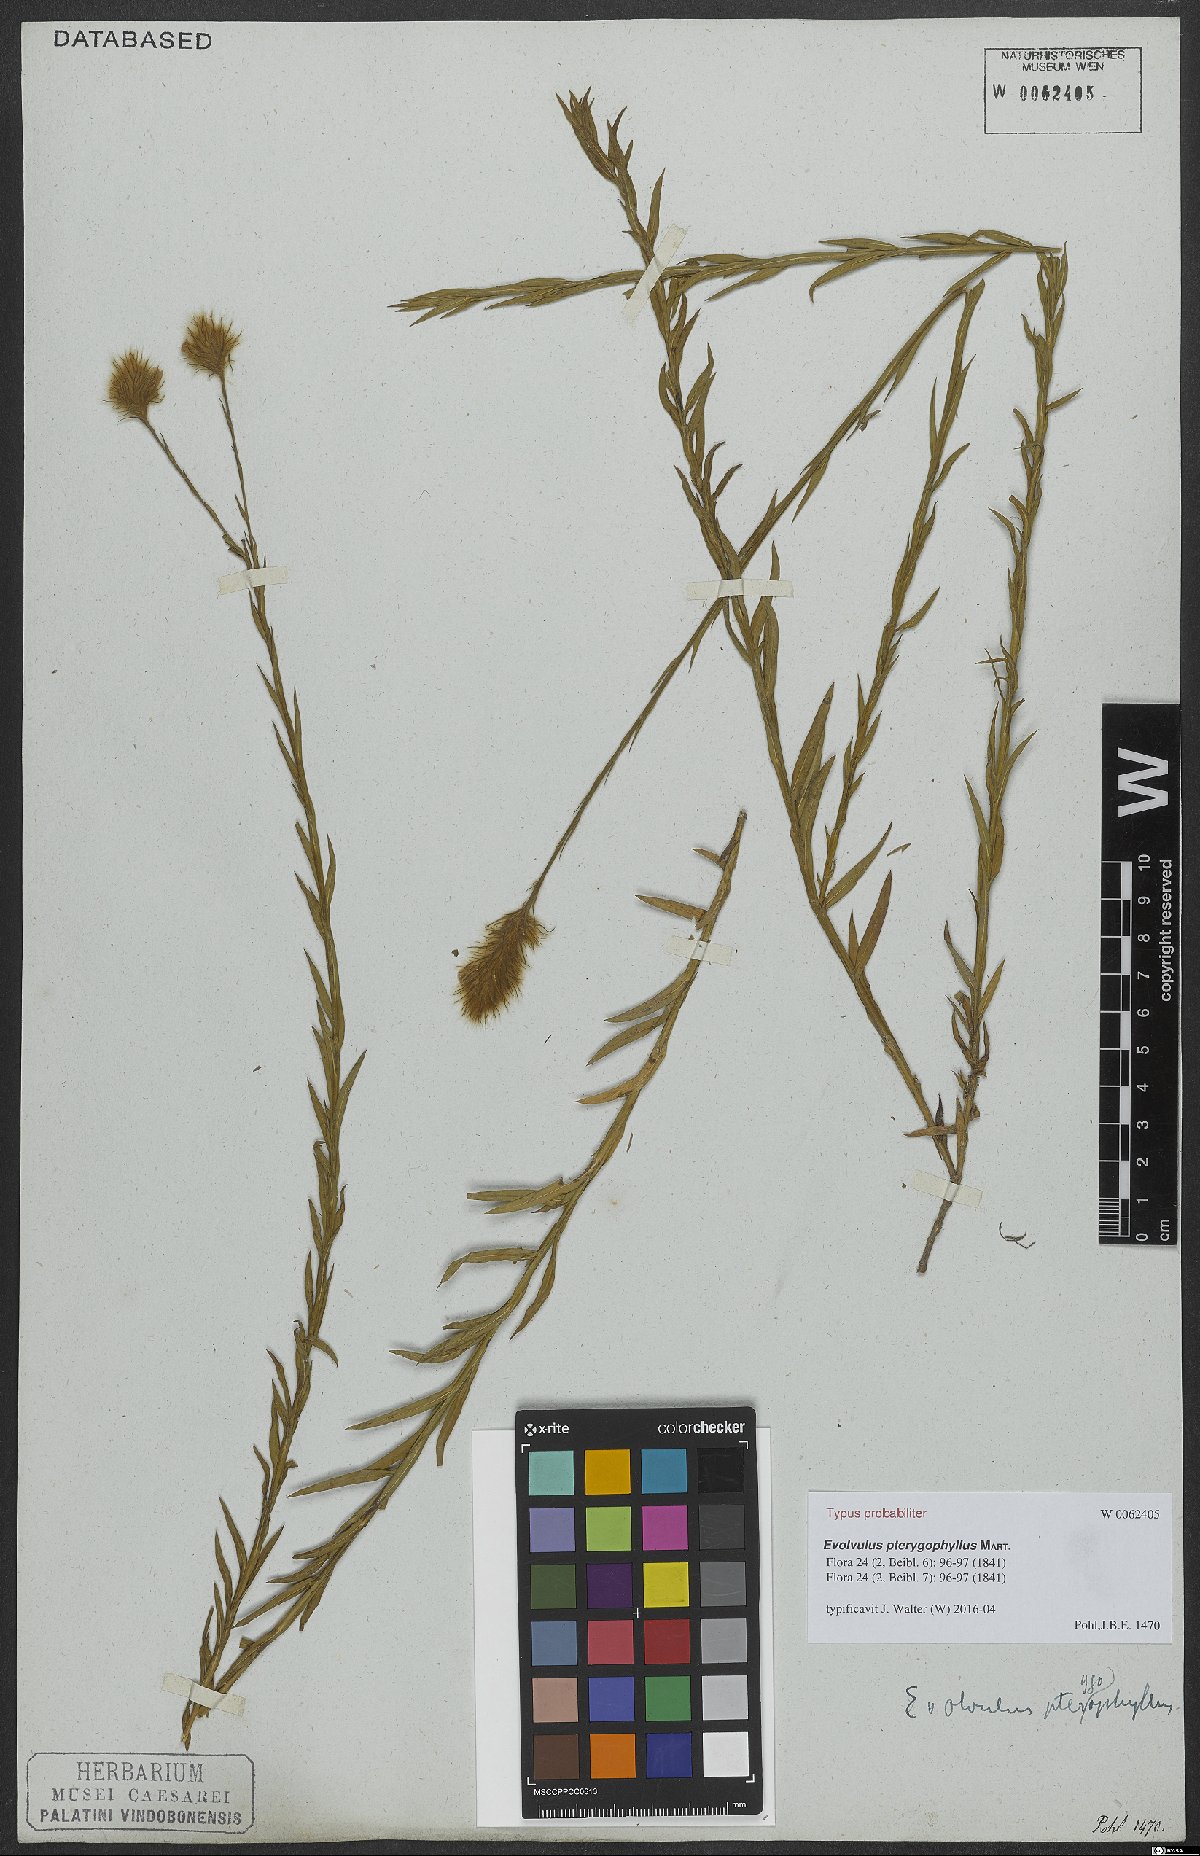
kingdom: Plantae
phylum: Tracheophyta
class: Magnoliopsida
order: Solanales
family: Convolvulaceae
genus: Evolvulus
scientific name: Evolvulus pterygophyllus
